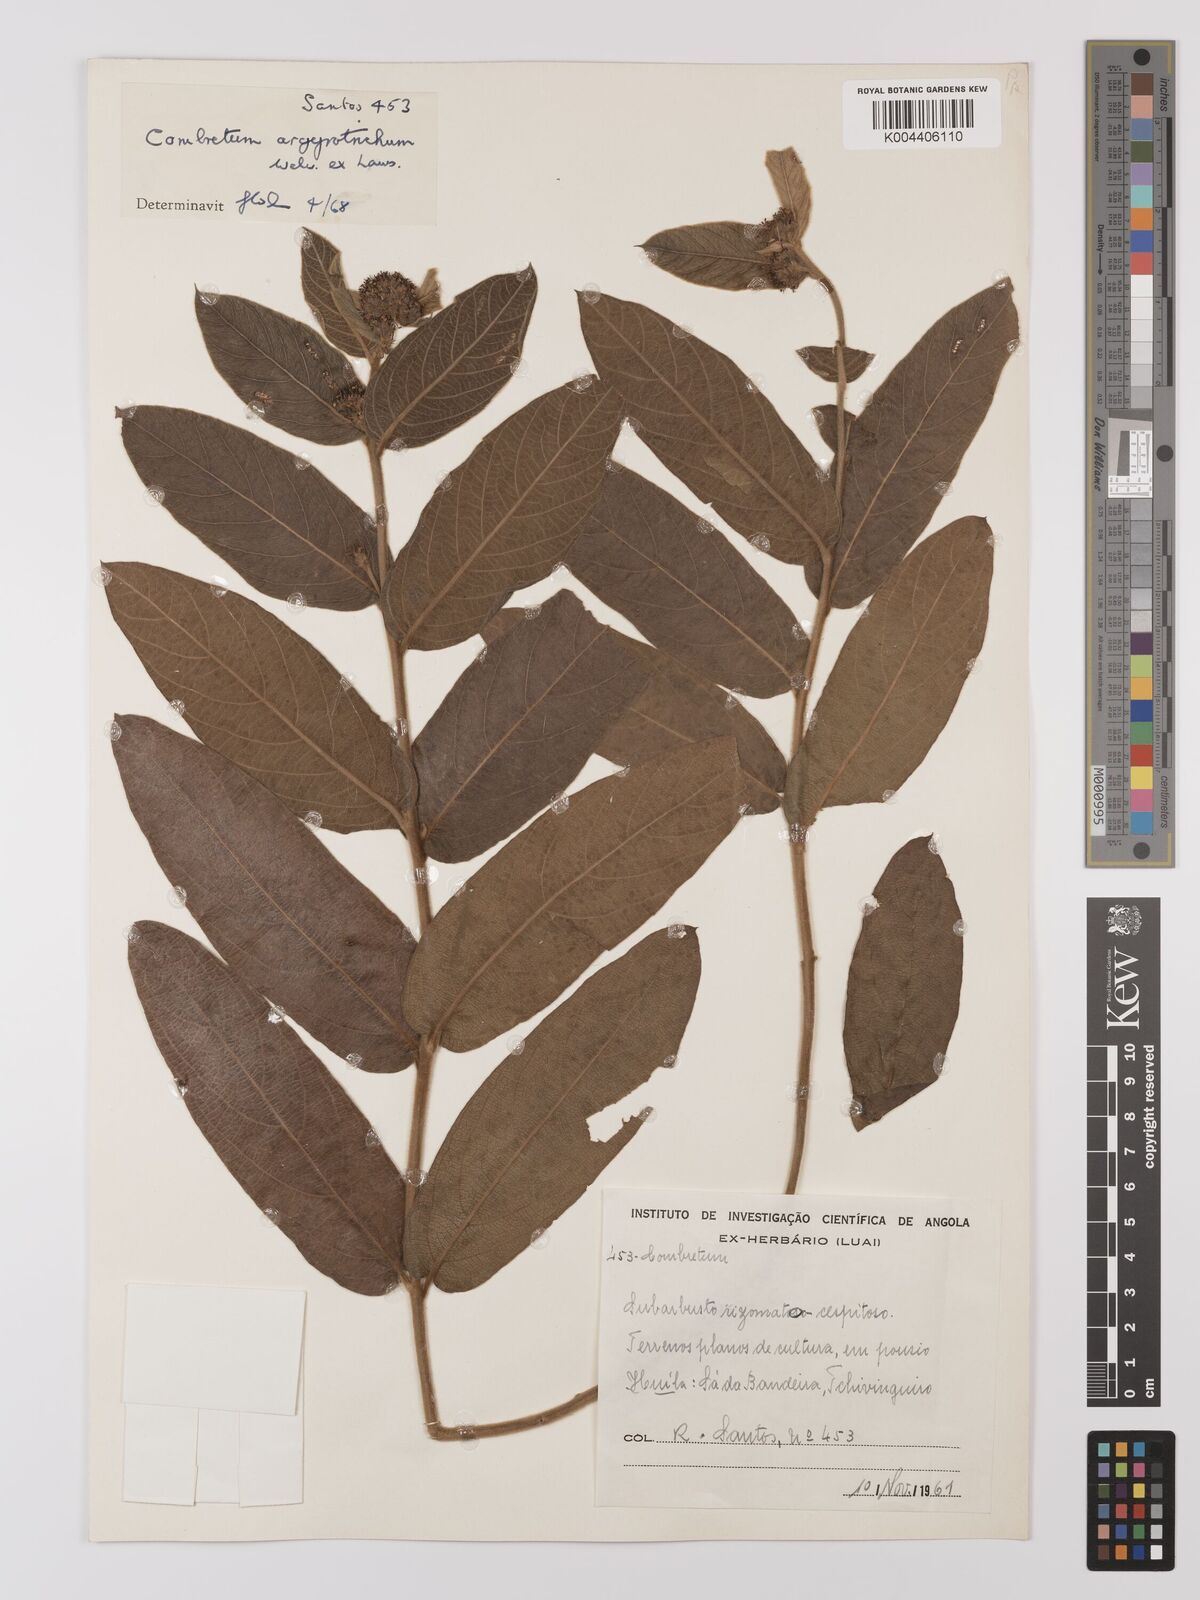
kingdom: Plantae
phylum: Tracheophyta
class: Magnoliopsida
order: Myrtales
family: Combretaceae
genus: Combretum
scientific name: Combretum
